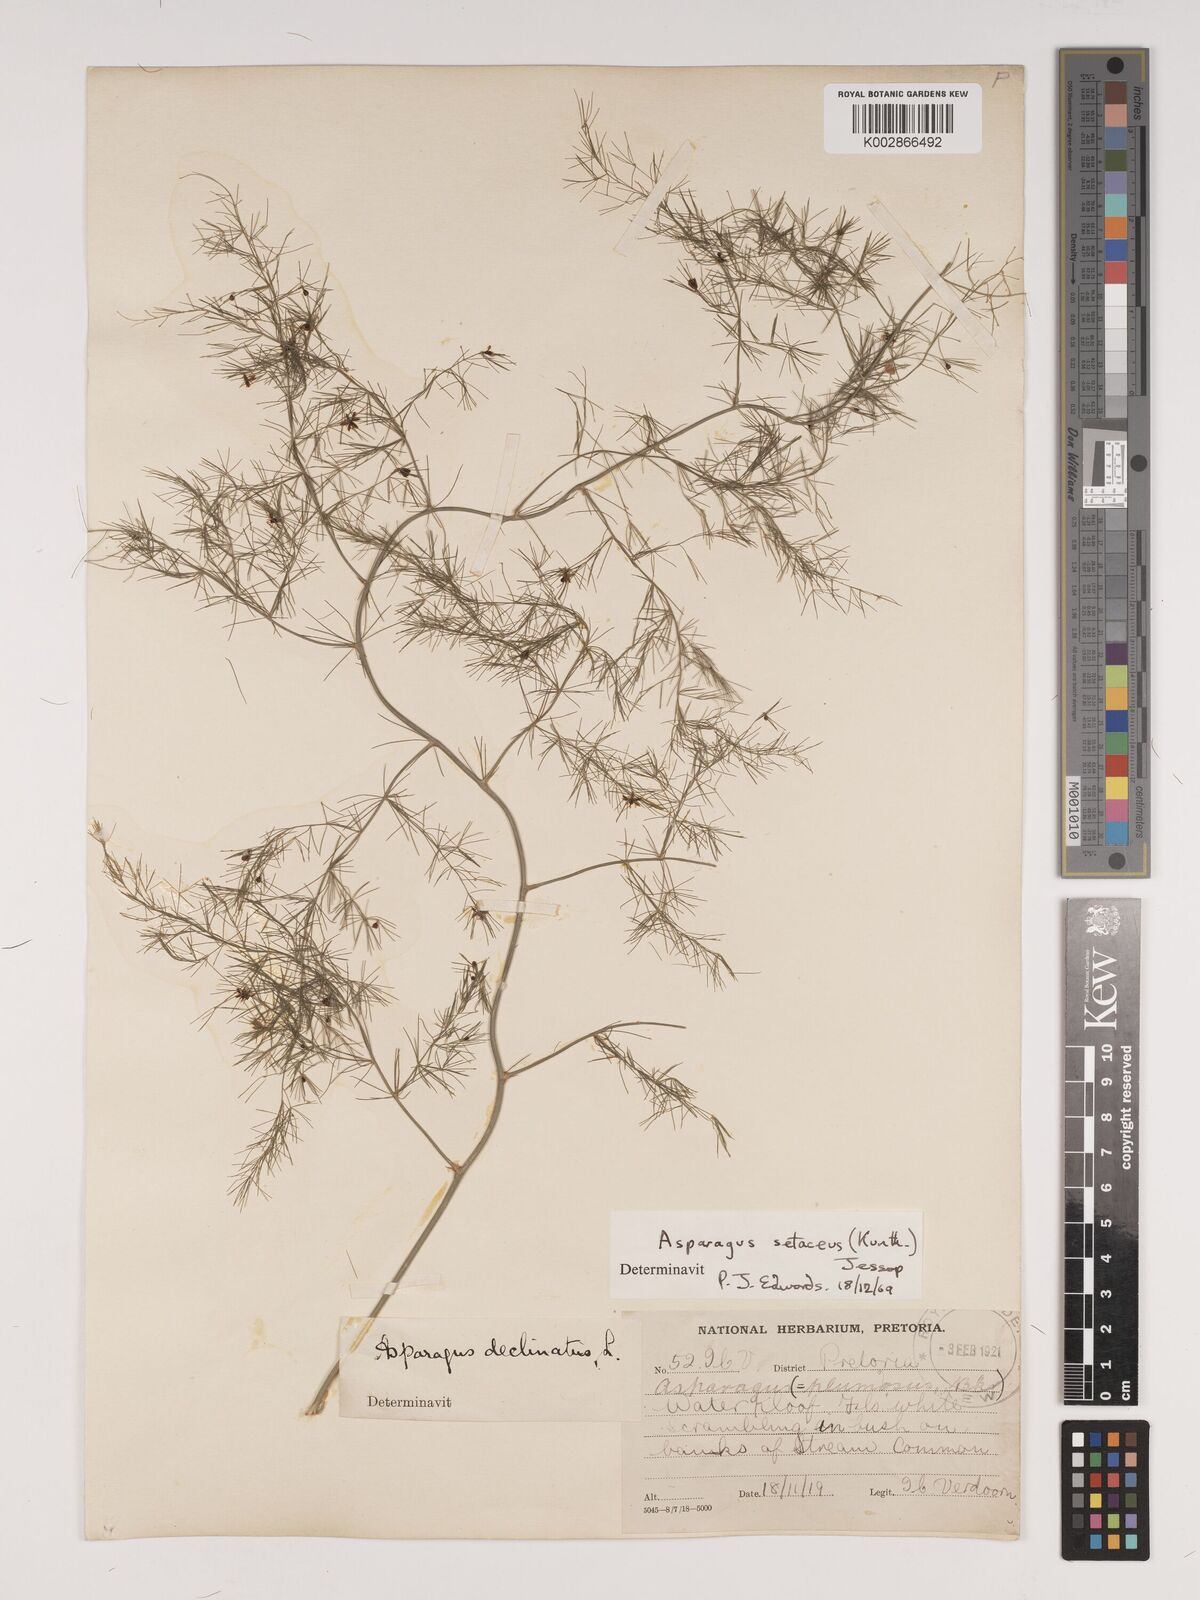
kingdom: Plantae
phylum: Tracheophyta
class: Liliopsida
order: Asparagales
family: Asparagaceae
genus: Asparagus
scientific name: Asparagus setaceus
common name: Common asparagus fern
